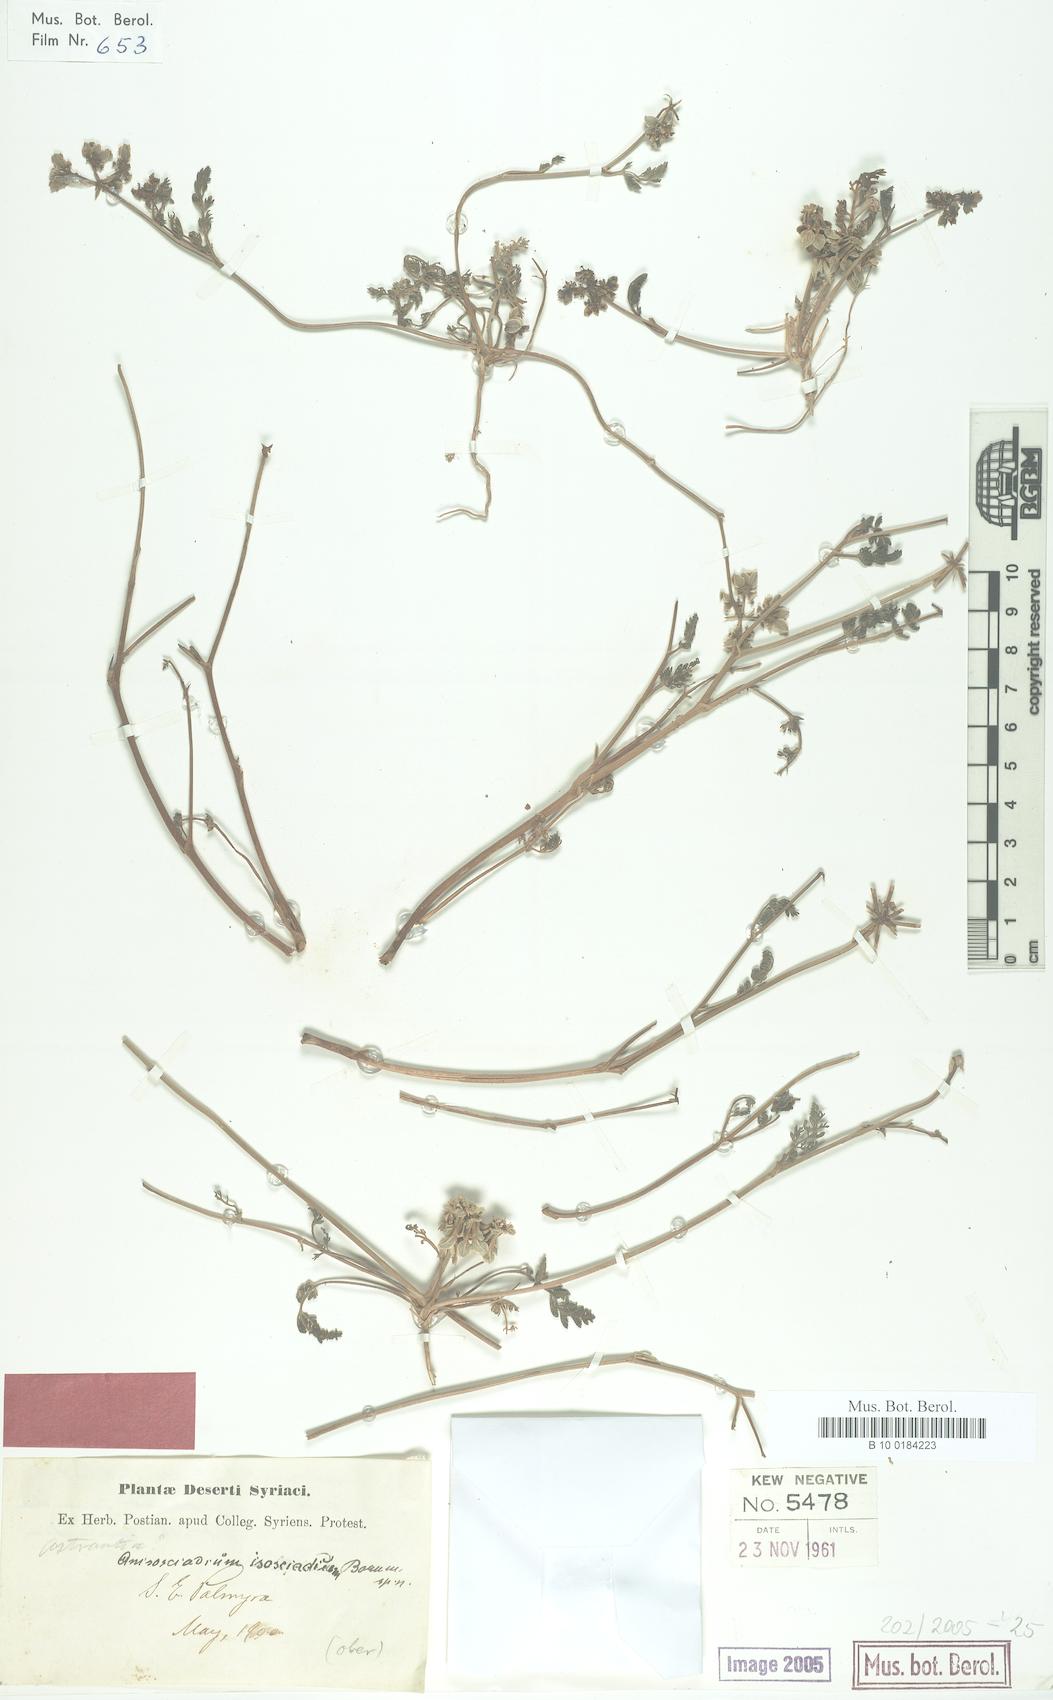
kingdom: Plantae
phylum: Tracheophyta
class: Magnoliopsida
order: Apiales
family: Apiaceae
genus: Anisosciadium
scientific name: Anisosciadium isosciadium
